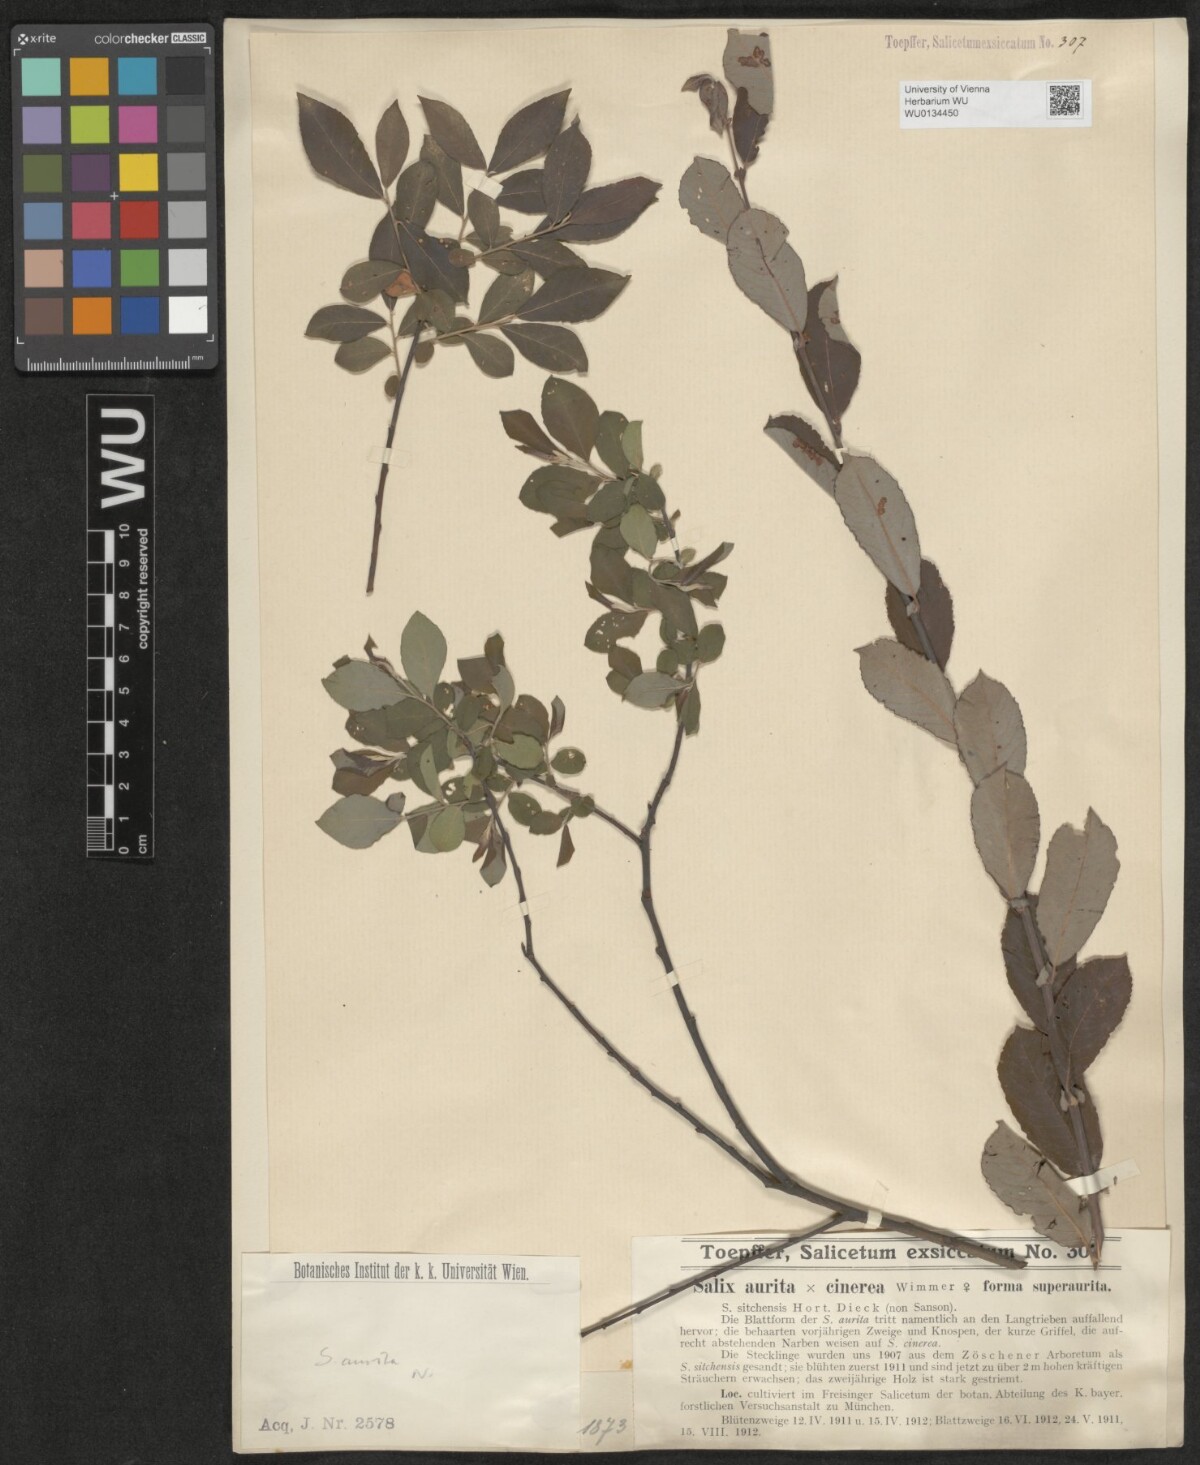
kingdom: Plantae
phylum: Tracheophyta
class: Magnoliopsida
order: Malpighiales
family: Salicaceae
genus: Salix
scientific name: Salix aurita
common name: Eared willow
